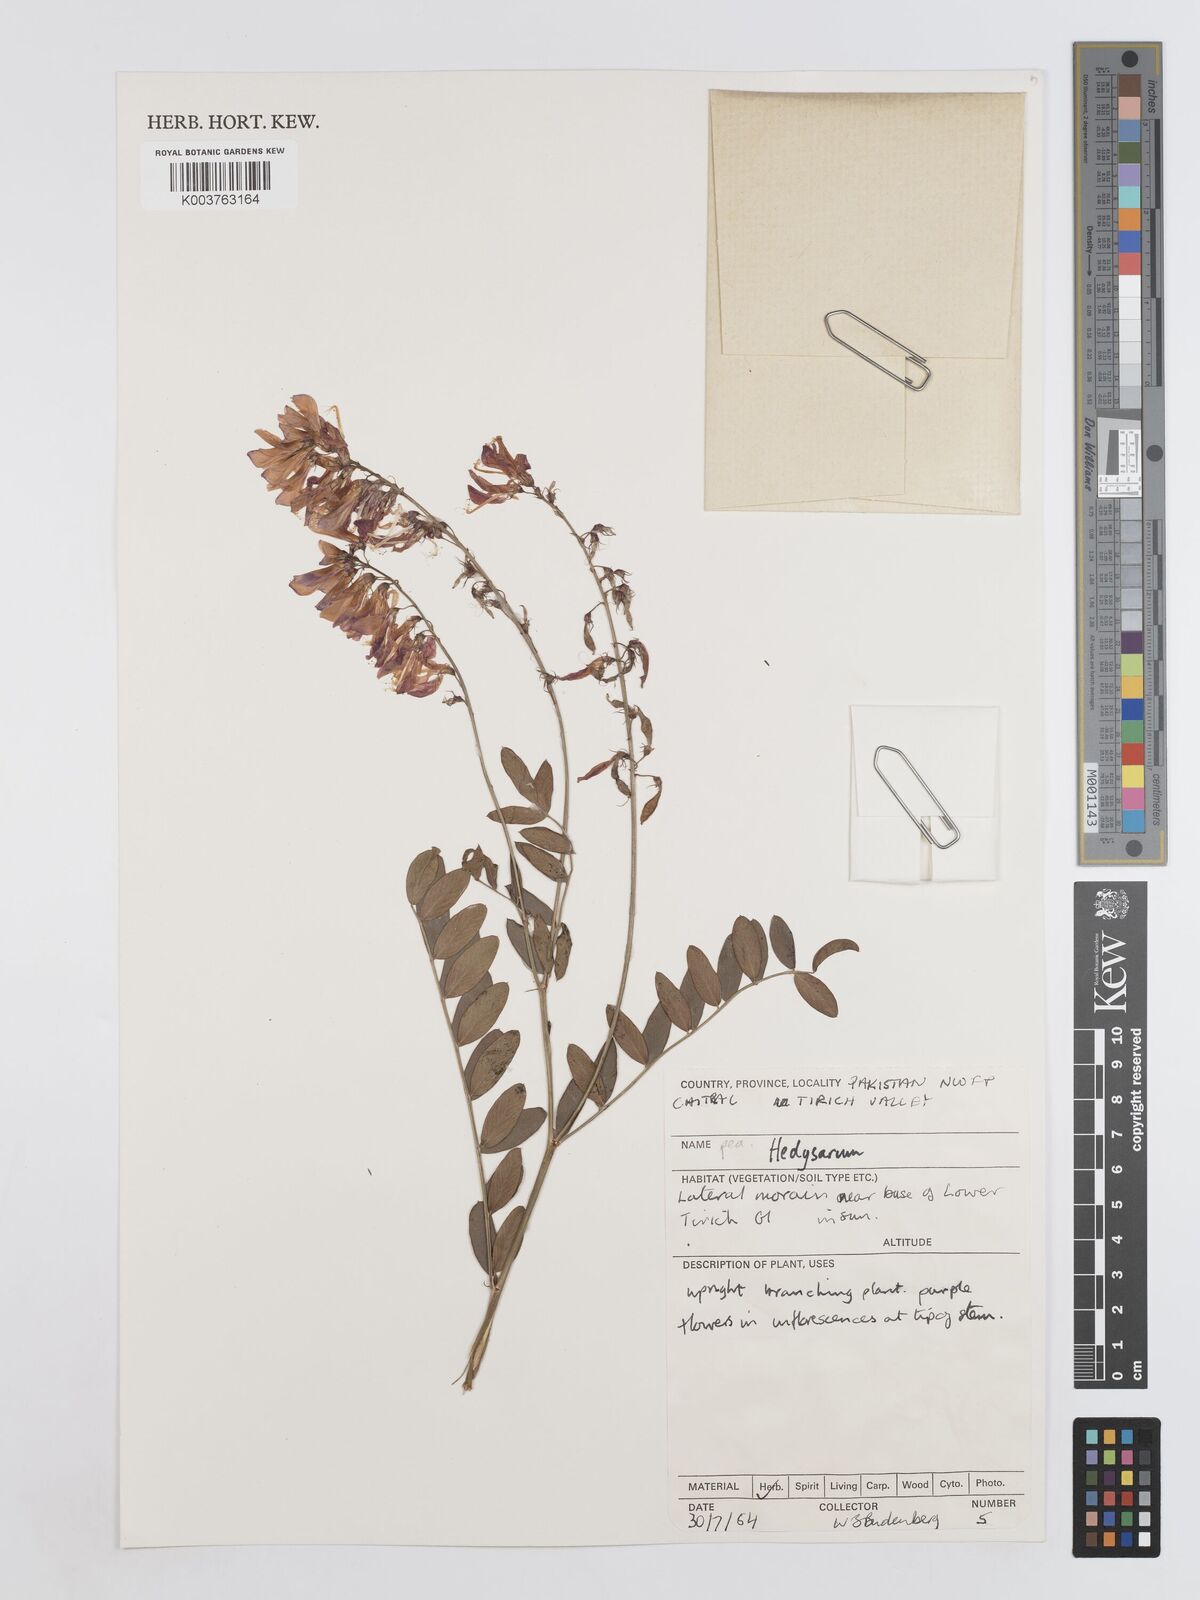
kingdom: Plantae
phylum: Tracheophyta
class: Magnoliopsida
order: Fabales
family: Fabaceae
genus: Hedysarum
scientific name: Hedysarum
